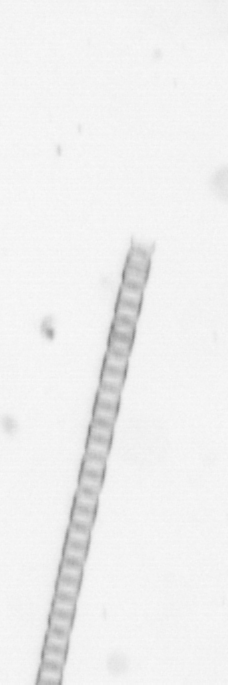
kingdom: Chromista
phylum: Ochrophyta
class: Bacillariophyceae
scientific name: Bacillariophyceae
